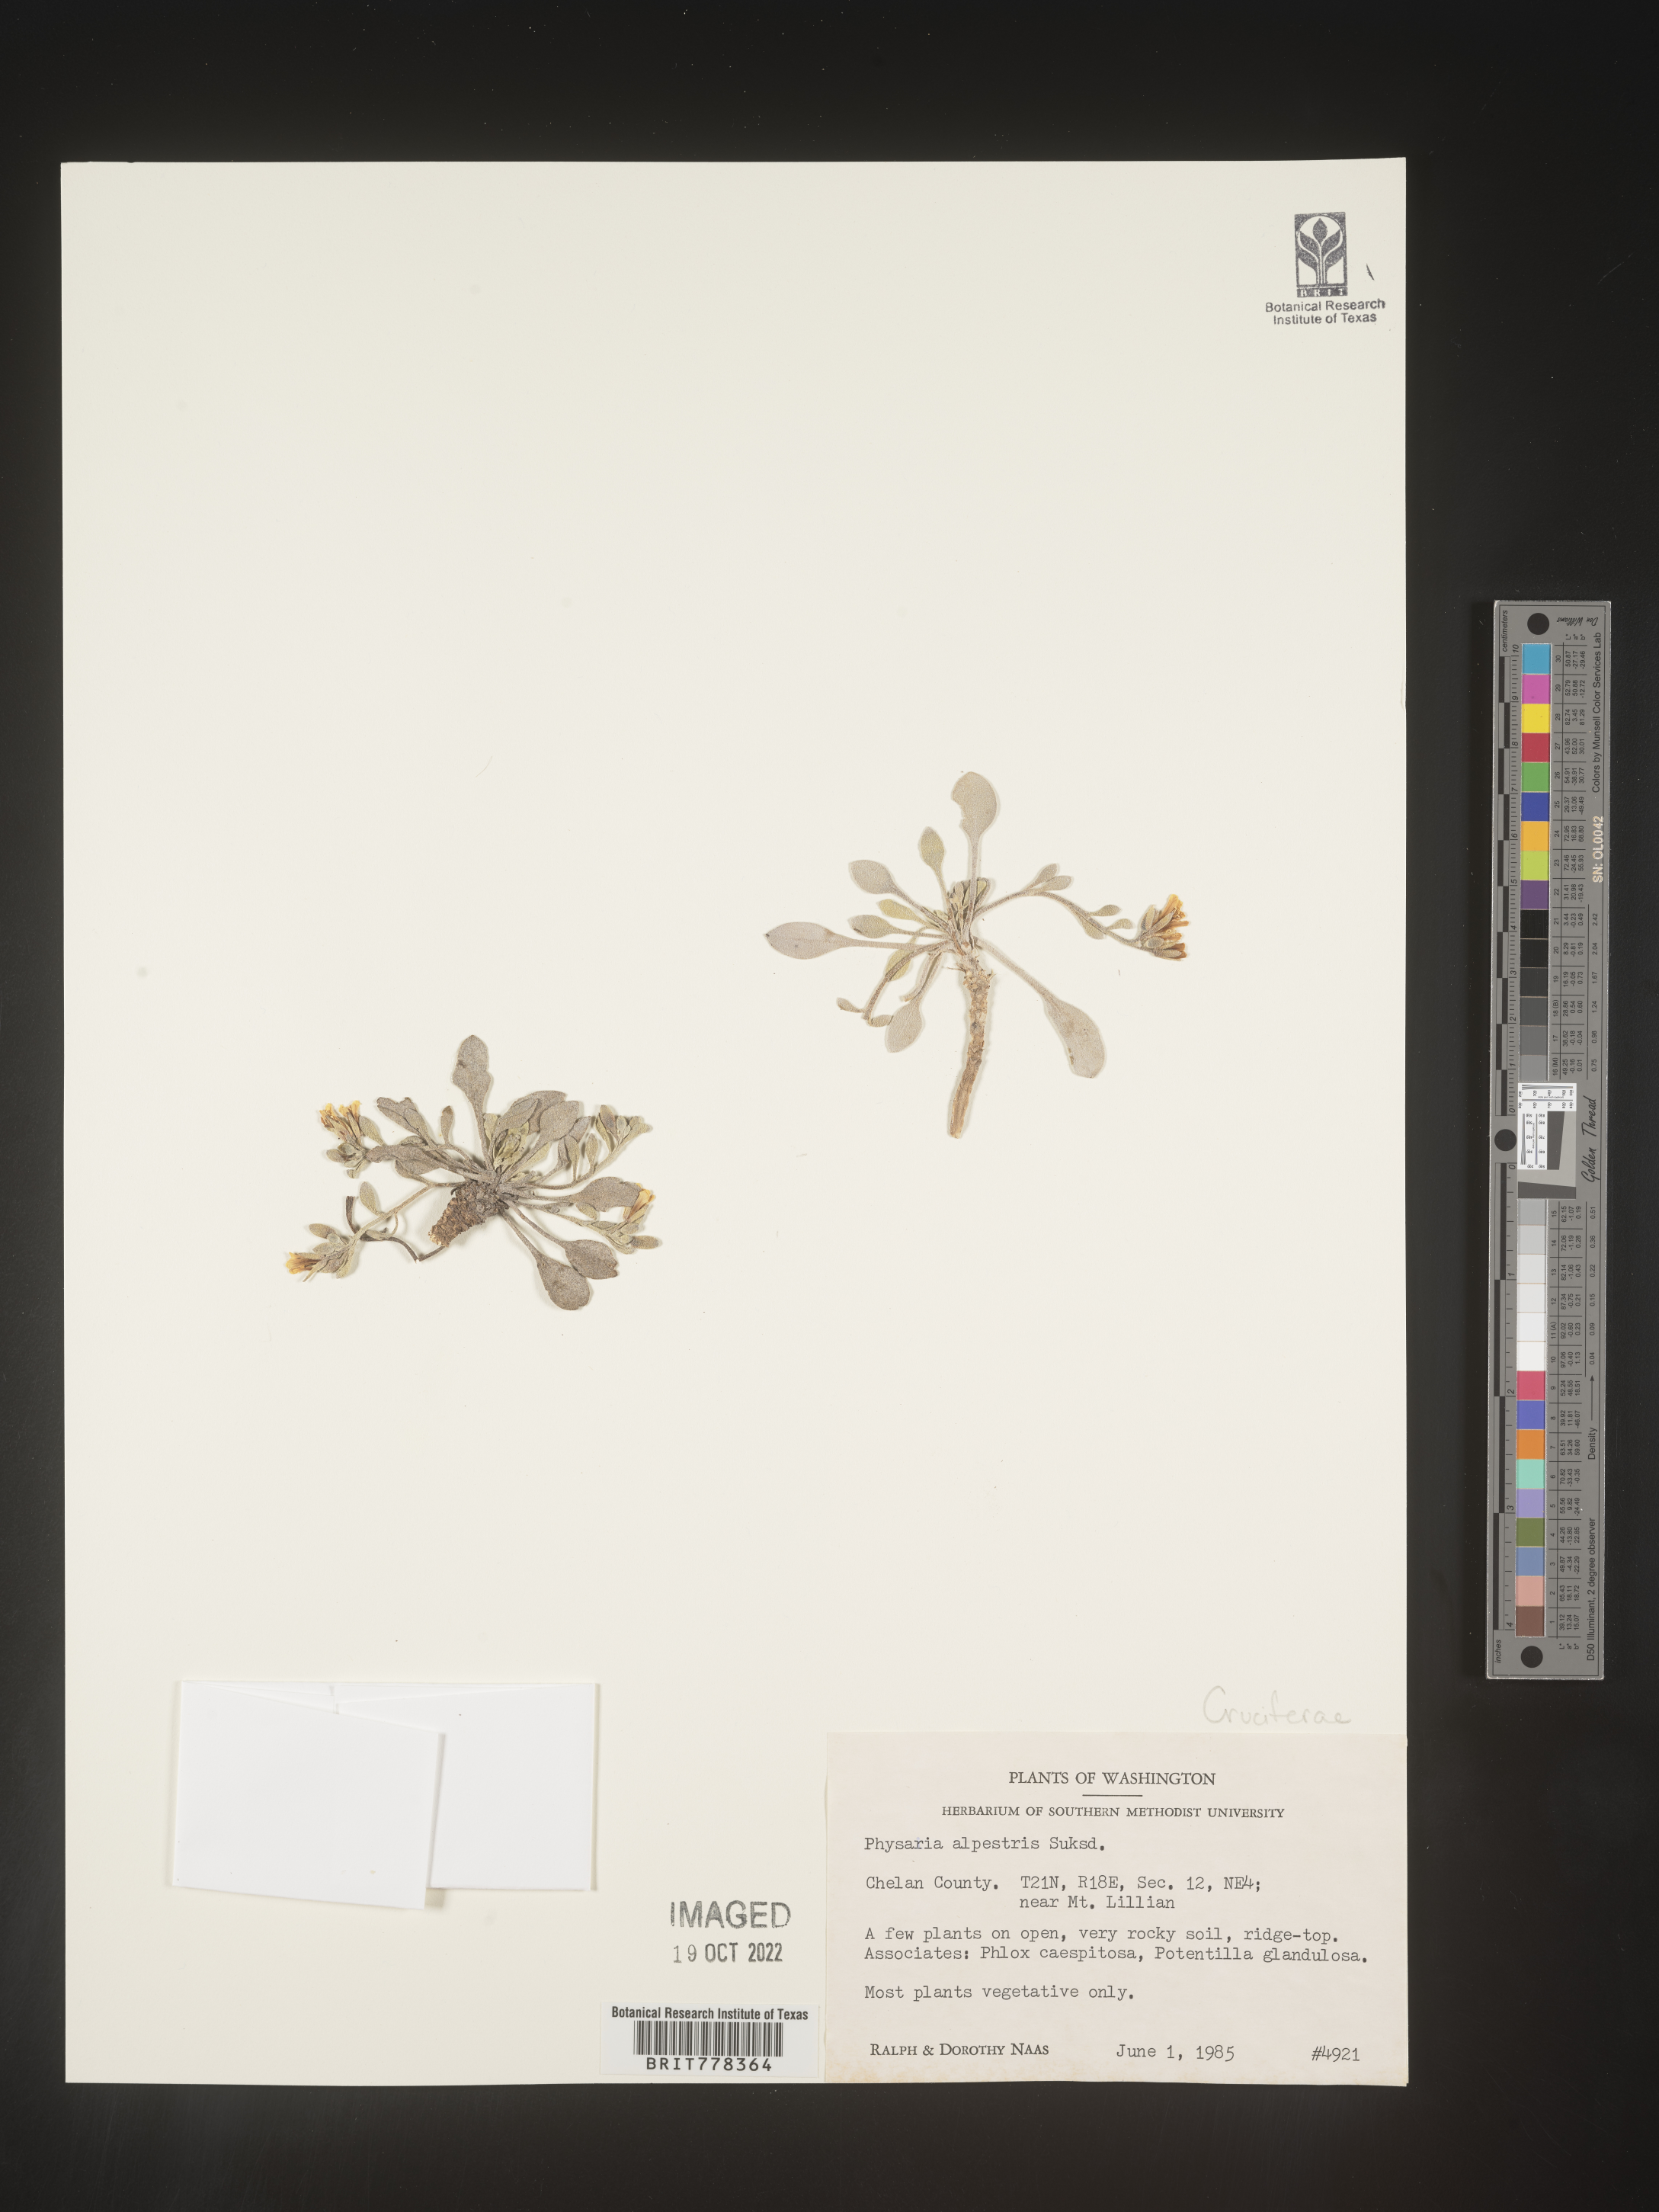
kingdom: Plantae
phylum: Tracheophyta
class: Magnoliopsida
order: Brassicales
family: Brassicaceae
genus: Physaria
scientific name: Physaria
